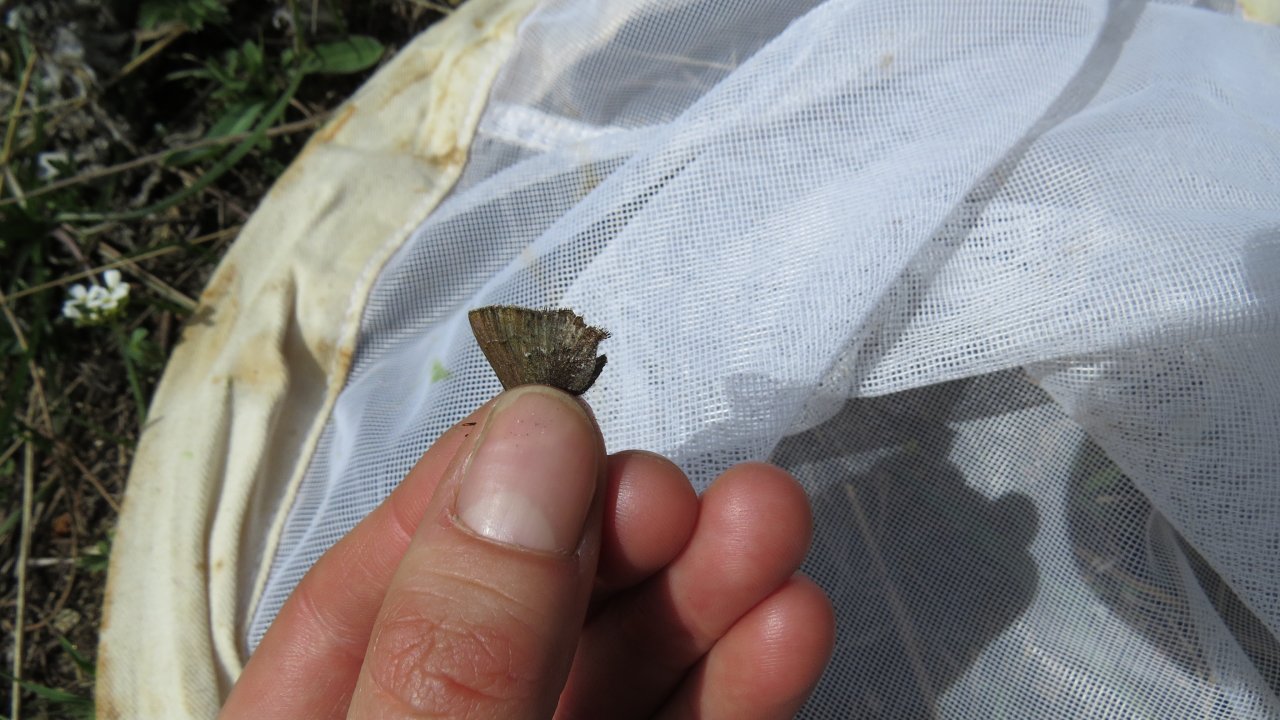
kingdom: Animalia
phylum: Arthropoda
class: Insecta
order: Lepidoptera
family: Lycaenidae
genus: Satyrium
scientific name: Satyrium
